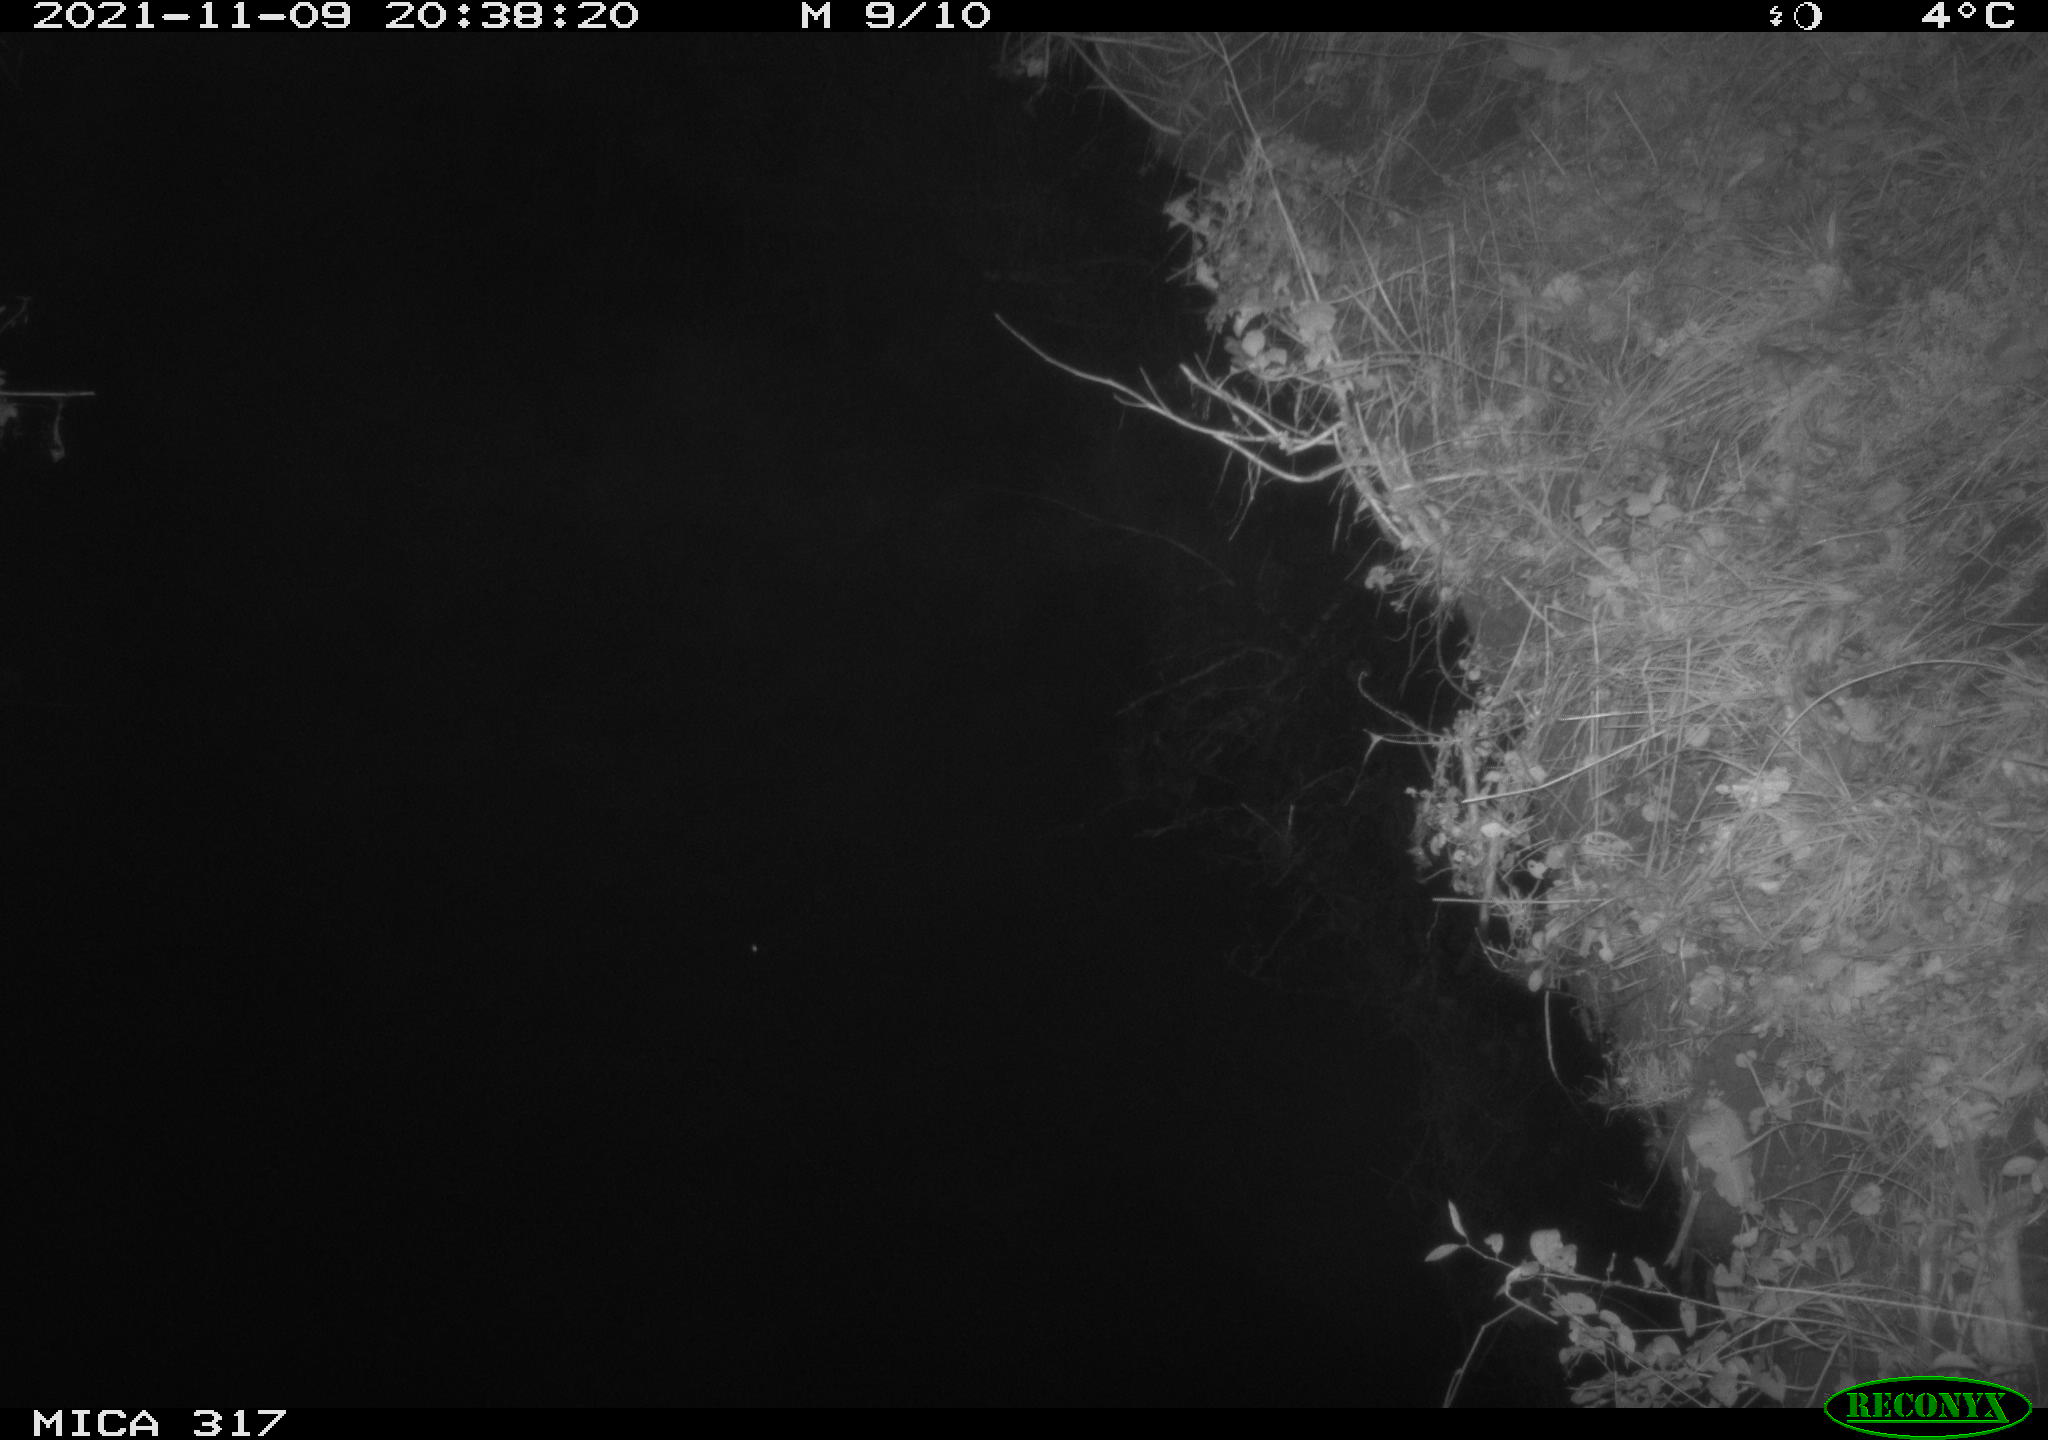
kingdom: Animalia
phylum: Chordata
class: Mammalia
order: Rodentia
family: Muridae
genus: Rattus
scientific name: Rattus norvegicus
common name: Brown rat
